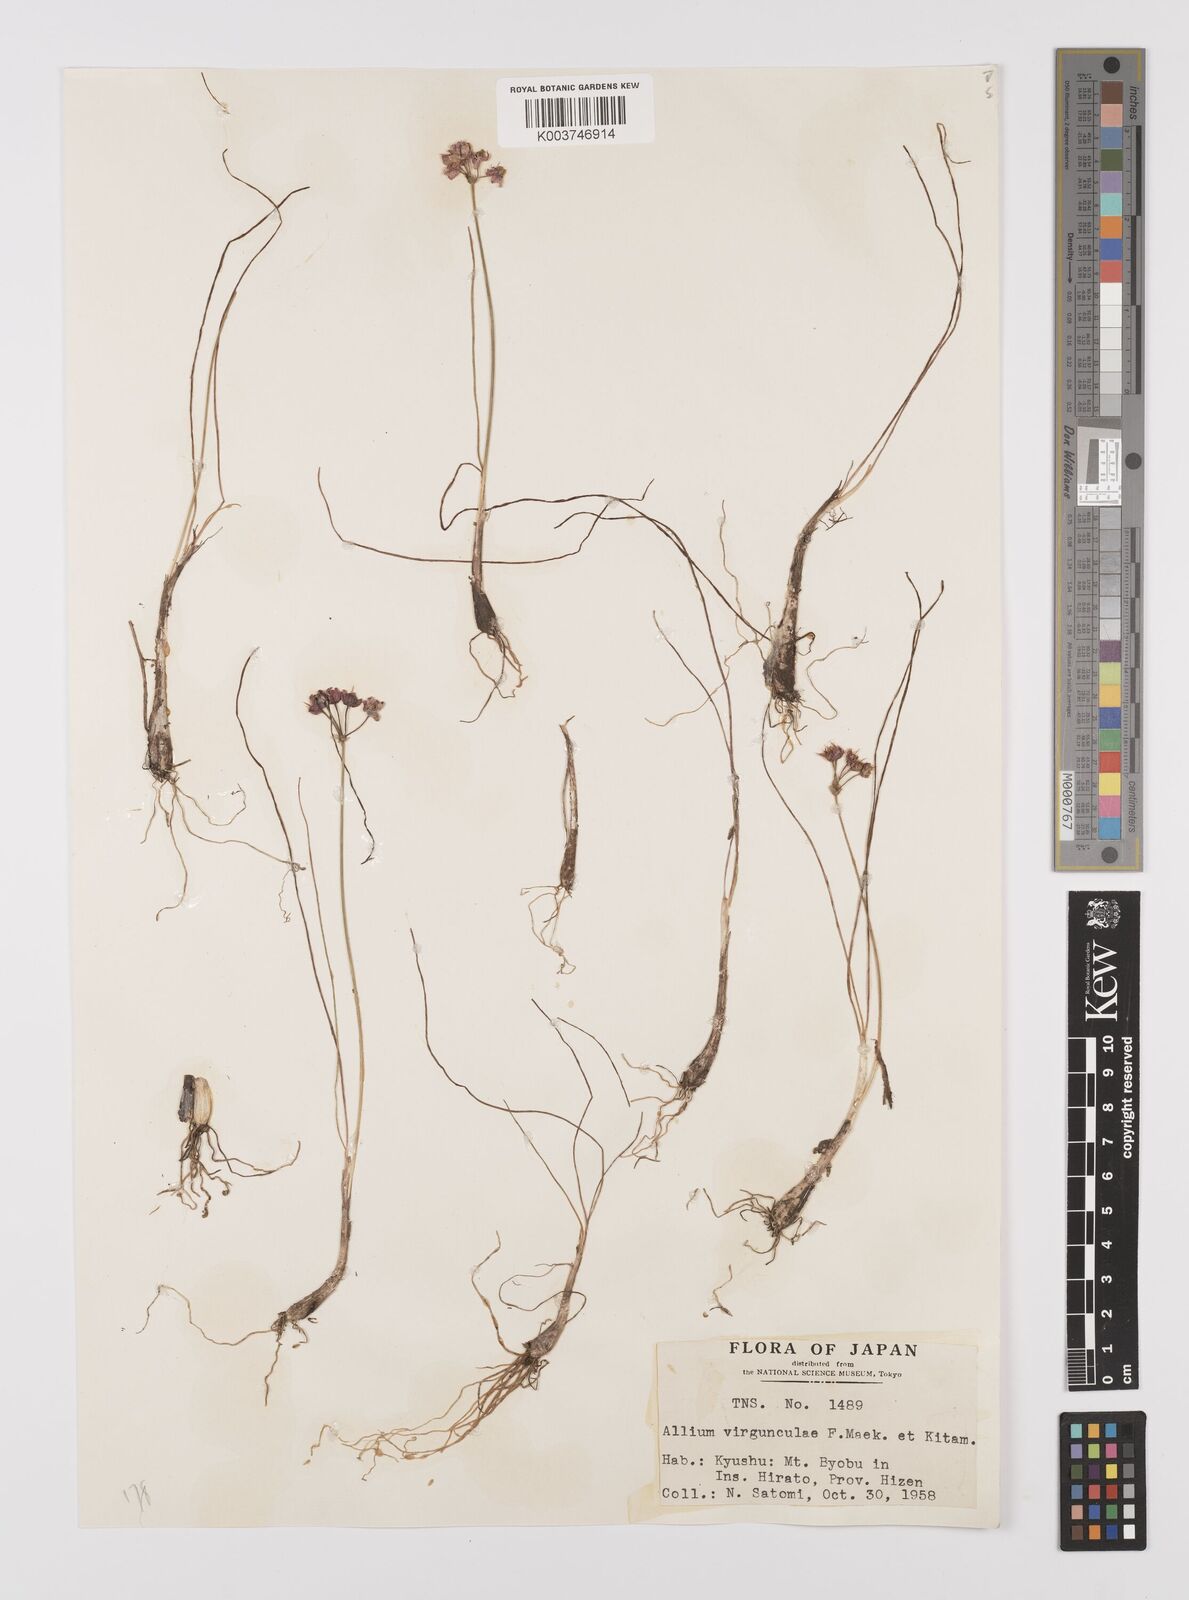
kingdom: Plantae
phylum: Tracheophyta
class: Liliopsida
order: Asparagales
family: Amaryllidaceae
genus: Allium
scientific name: Allium virgunculae
